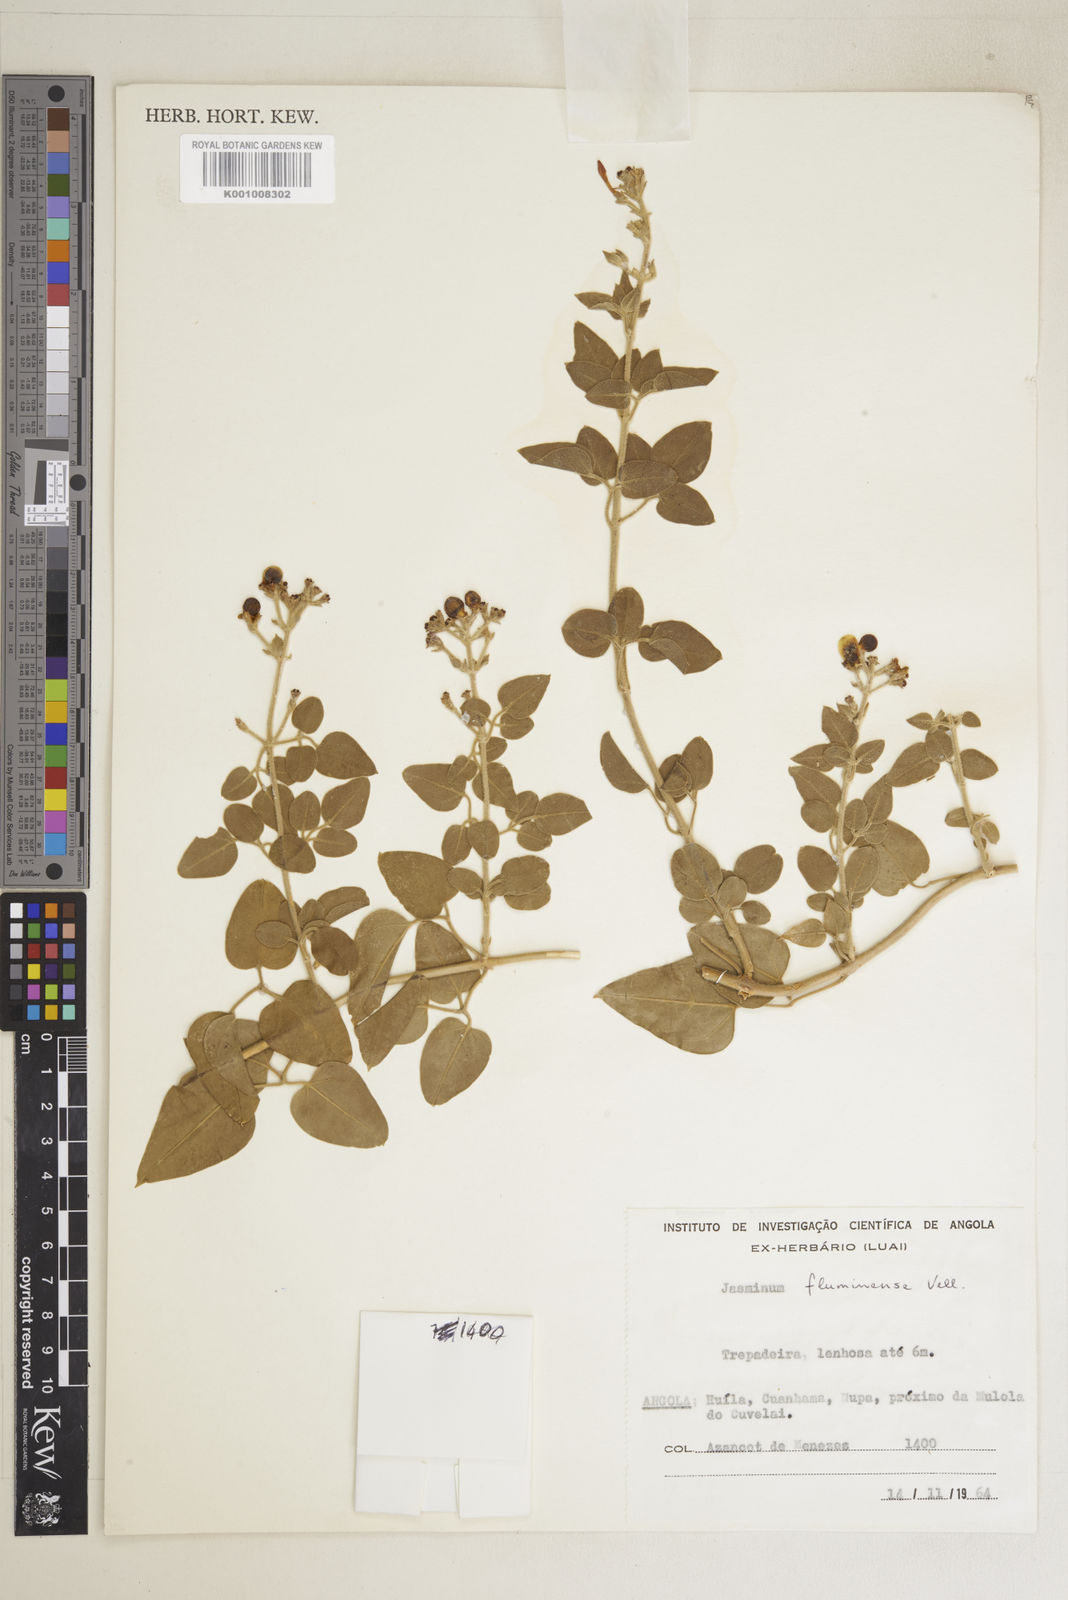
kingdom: Plantae
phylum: Tracheophyta
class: Magnoliopsida
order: Lamiales
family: Oleaceae
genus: Jasminum
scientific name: Jasminum fluminense
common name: Brazilian jasmine
